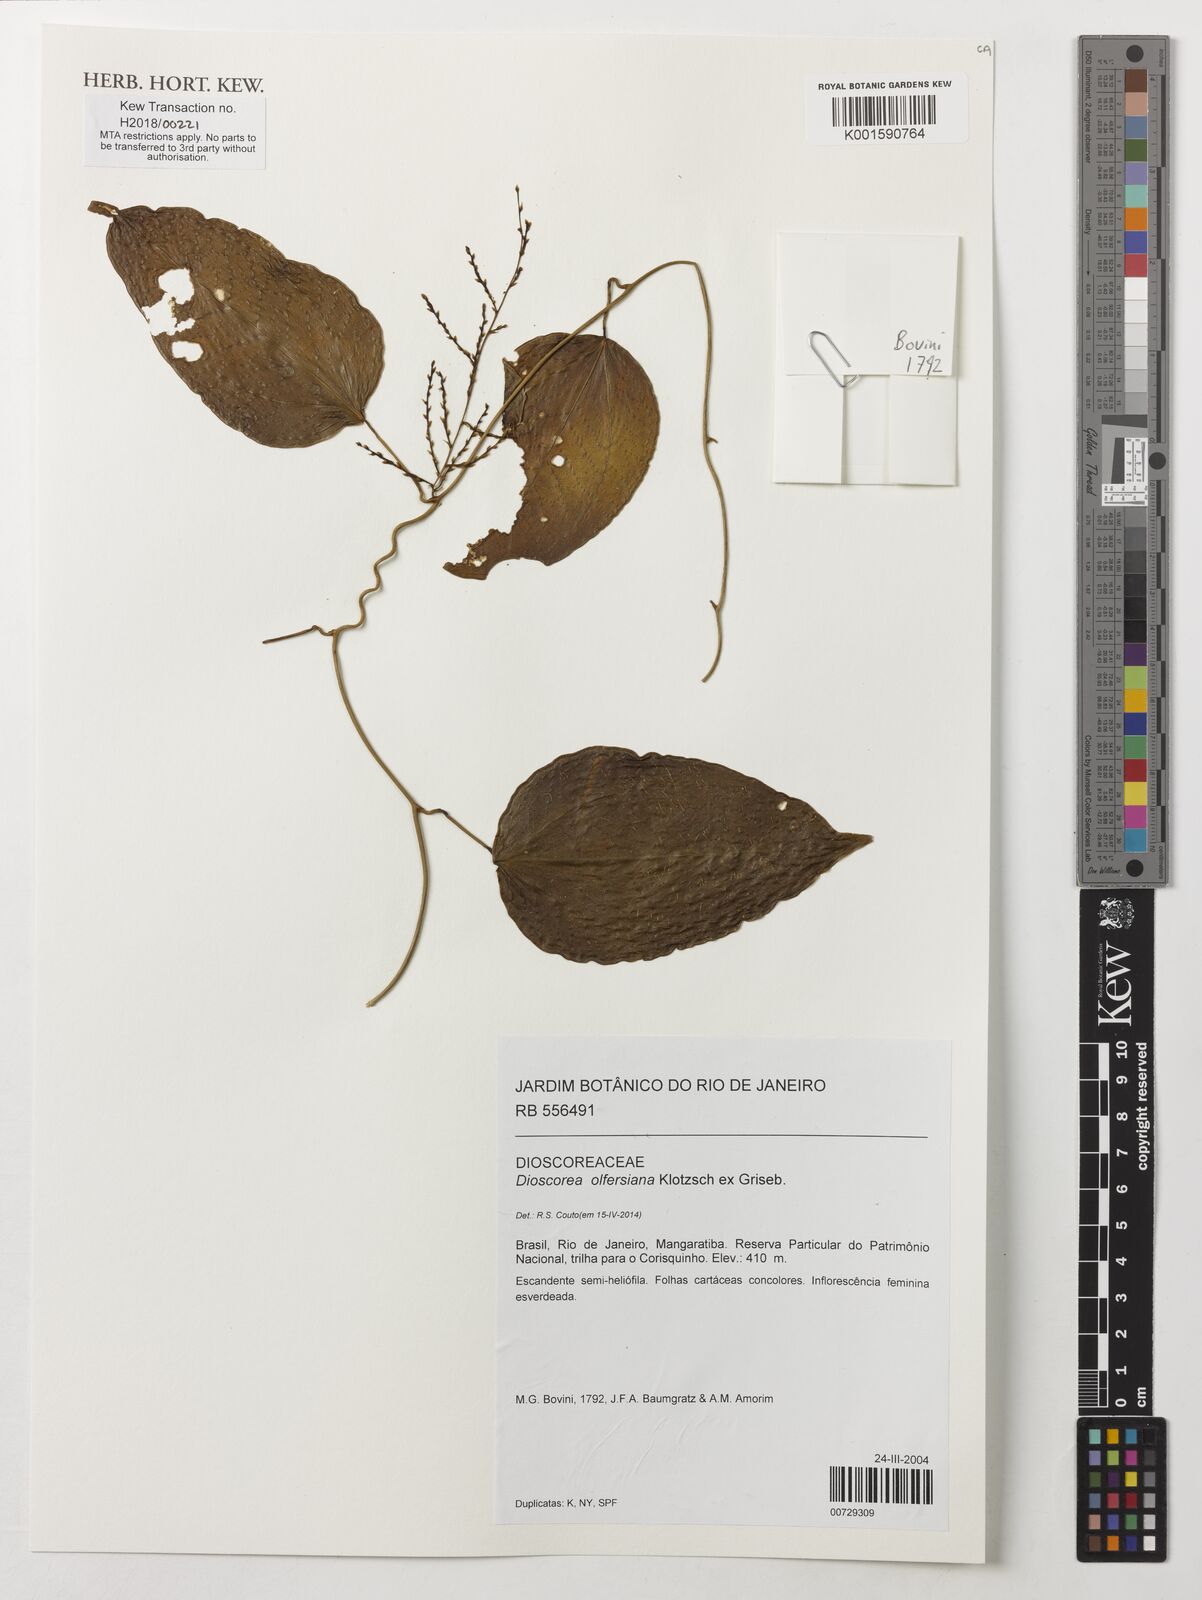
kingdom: Plantae
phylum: Tracheophyta
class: Liliopsida
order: Dioscoreales
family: Dioscoreaceae
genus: Dioscorea
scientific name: Dioscorea olfersiana
